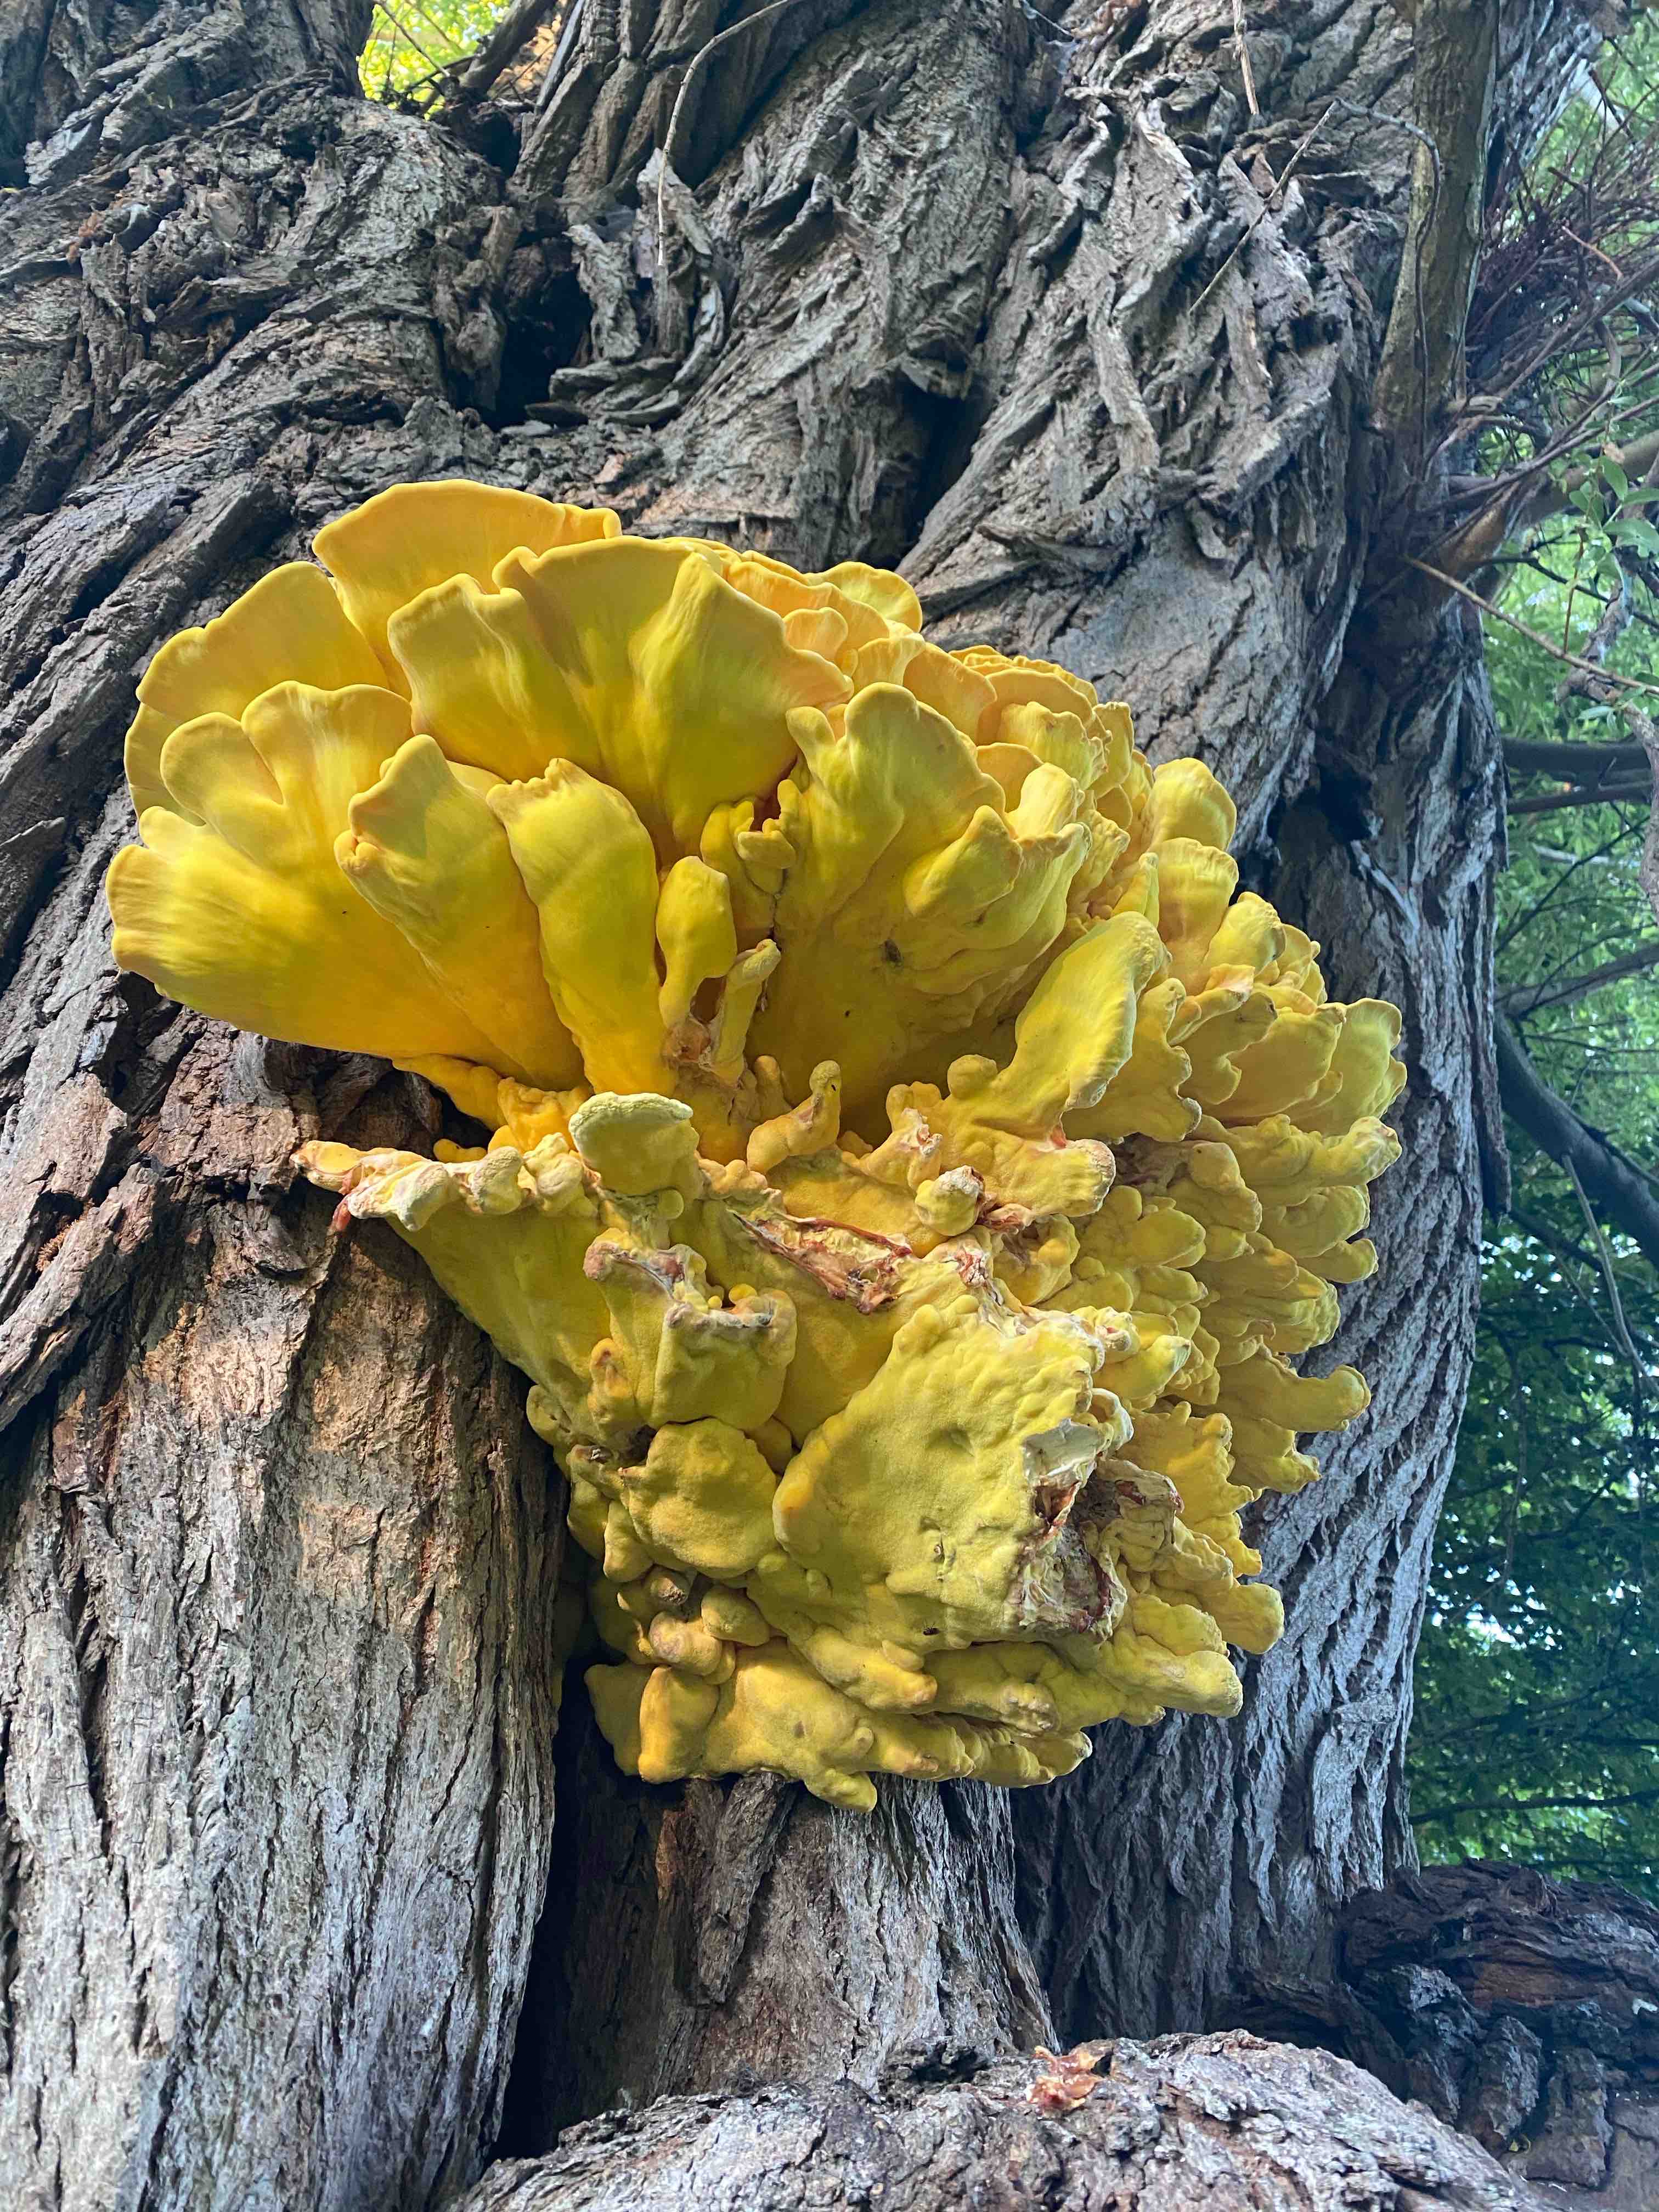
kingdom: Fungi
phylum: Basidiomycota
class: Agaricomycetes
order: Polyporales
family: Laetiporaceae
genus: Laetiporus
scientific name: Laetiporus sulphureus
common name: svovlporesvamp
